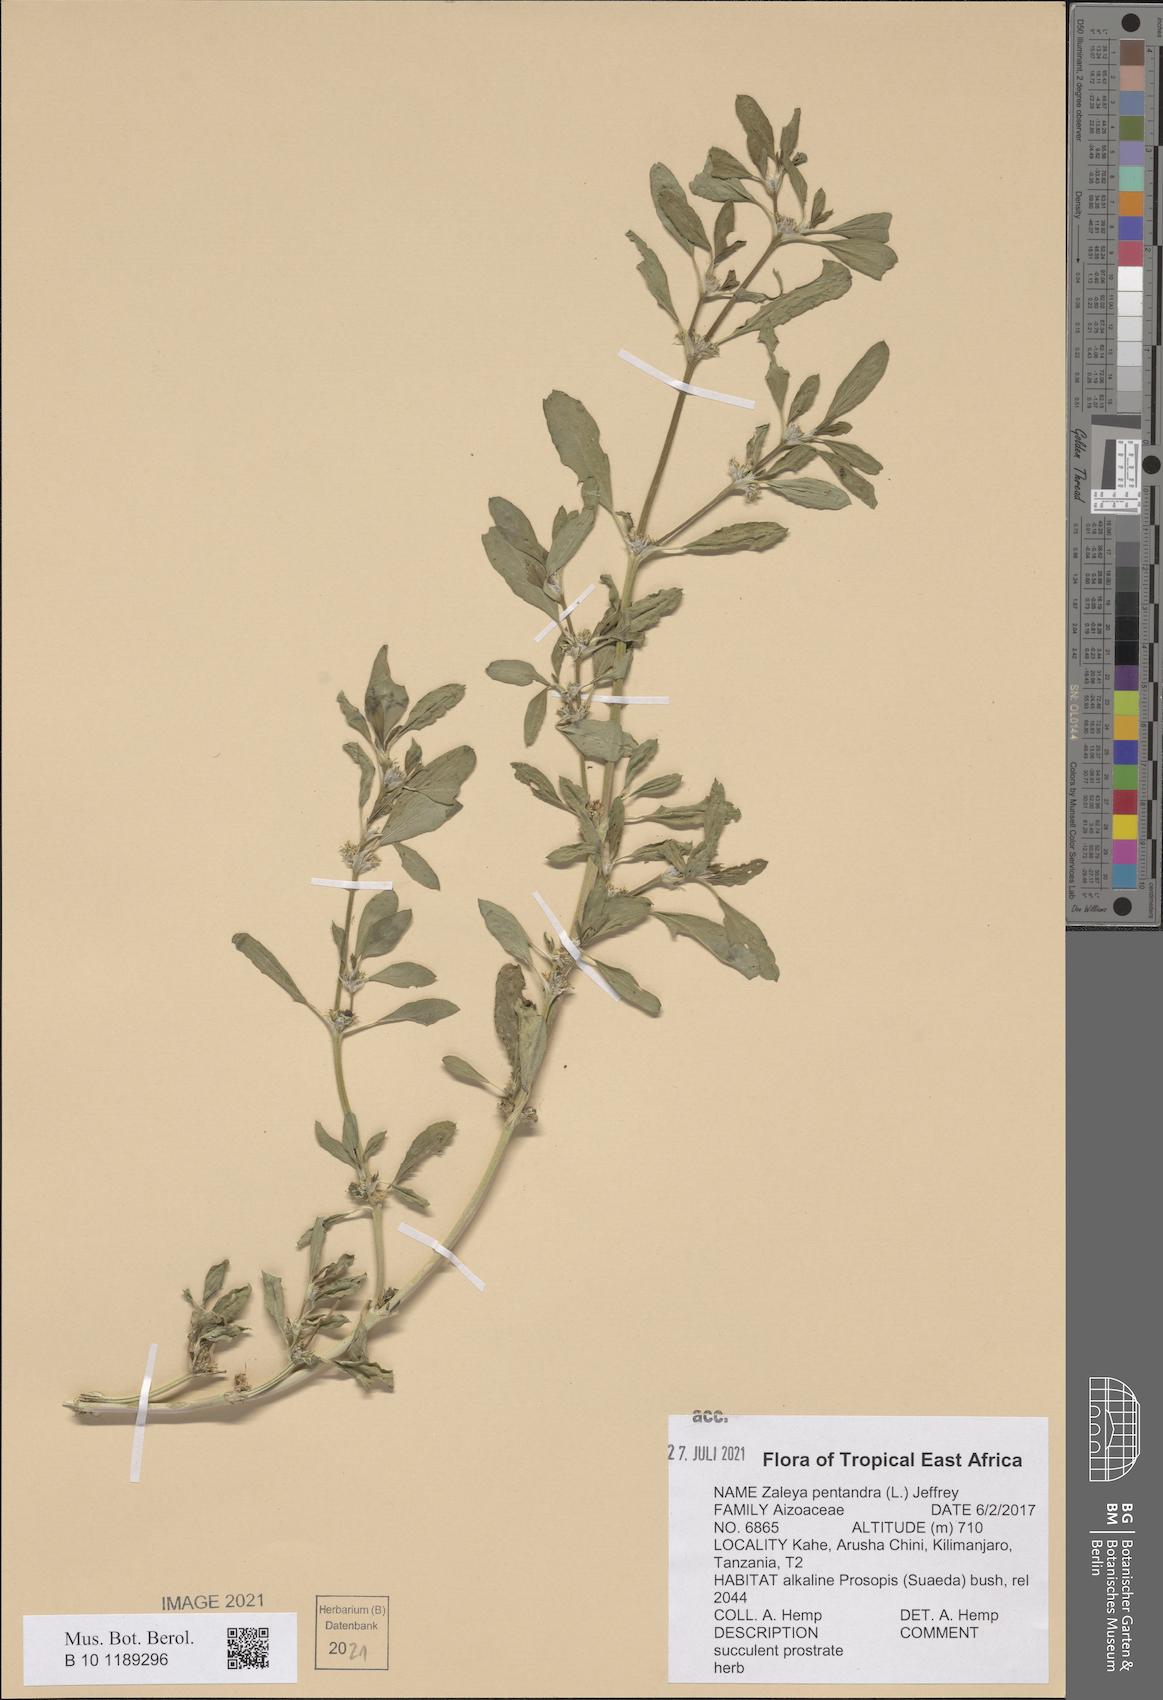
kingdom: Plantae
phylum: Tracheophyta
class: Magnoliopsida
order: Caryophyllales
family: Aizoaceae
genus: Zaleya
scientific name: Zaleya pentandra
